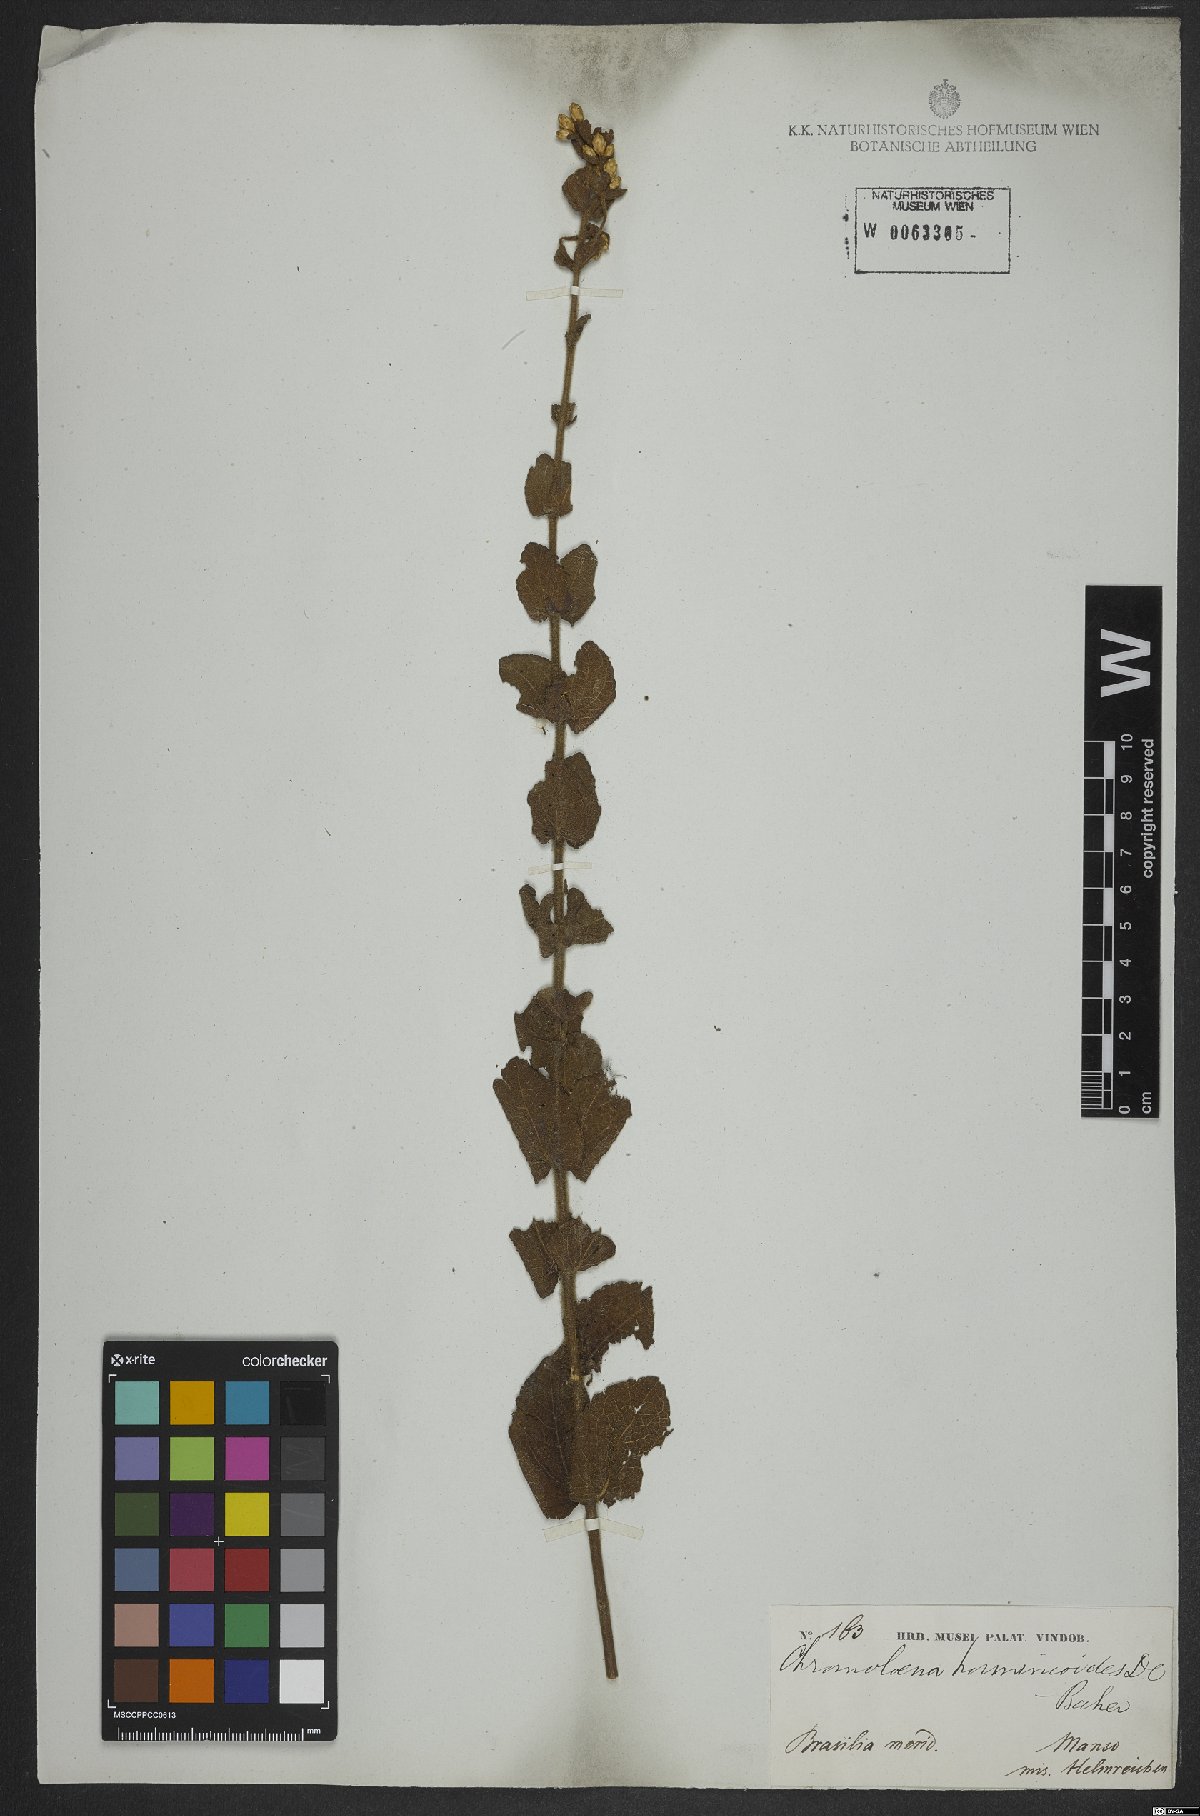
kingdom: Plantae
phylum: Tracheophyta
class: Magnoliopsida
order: Asterales
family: Asteraceae
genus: Chromolaena
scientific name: Chromolaena horminoides
